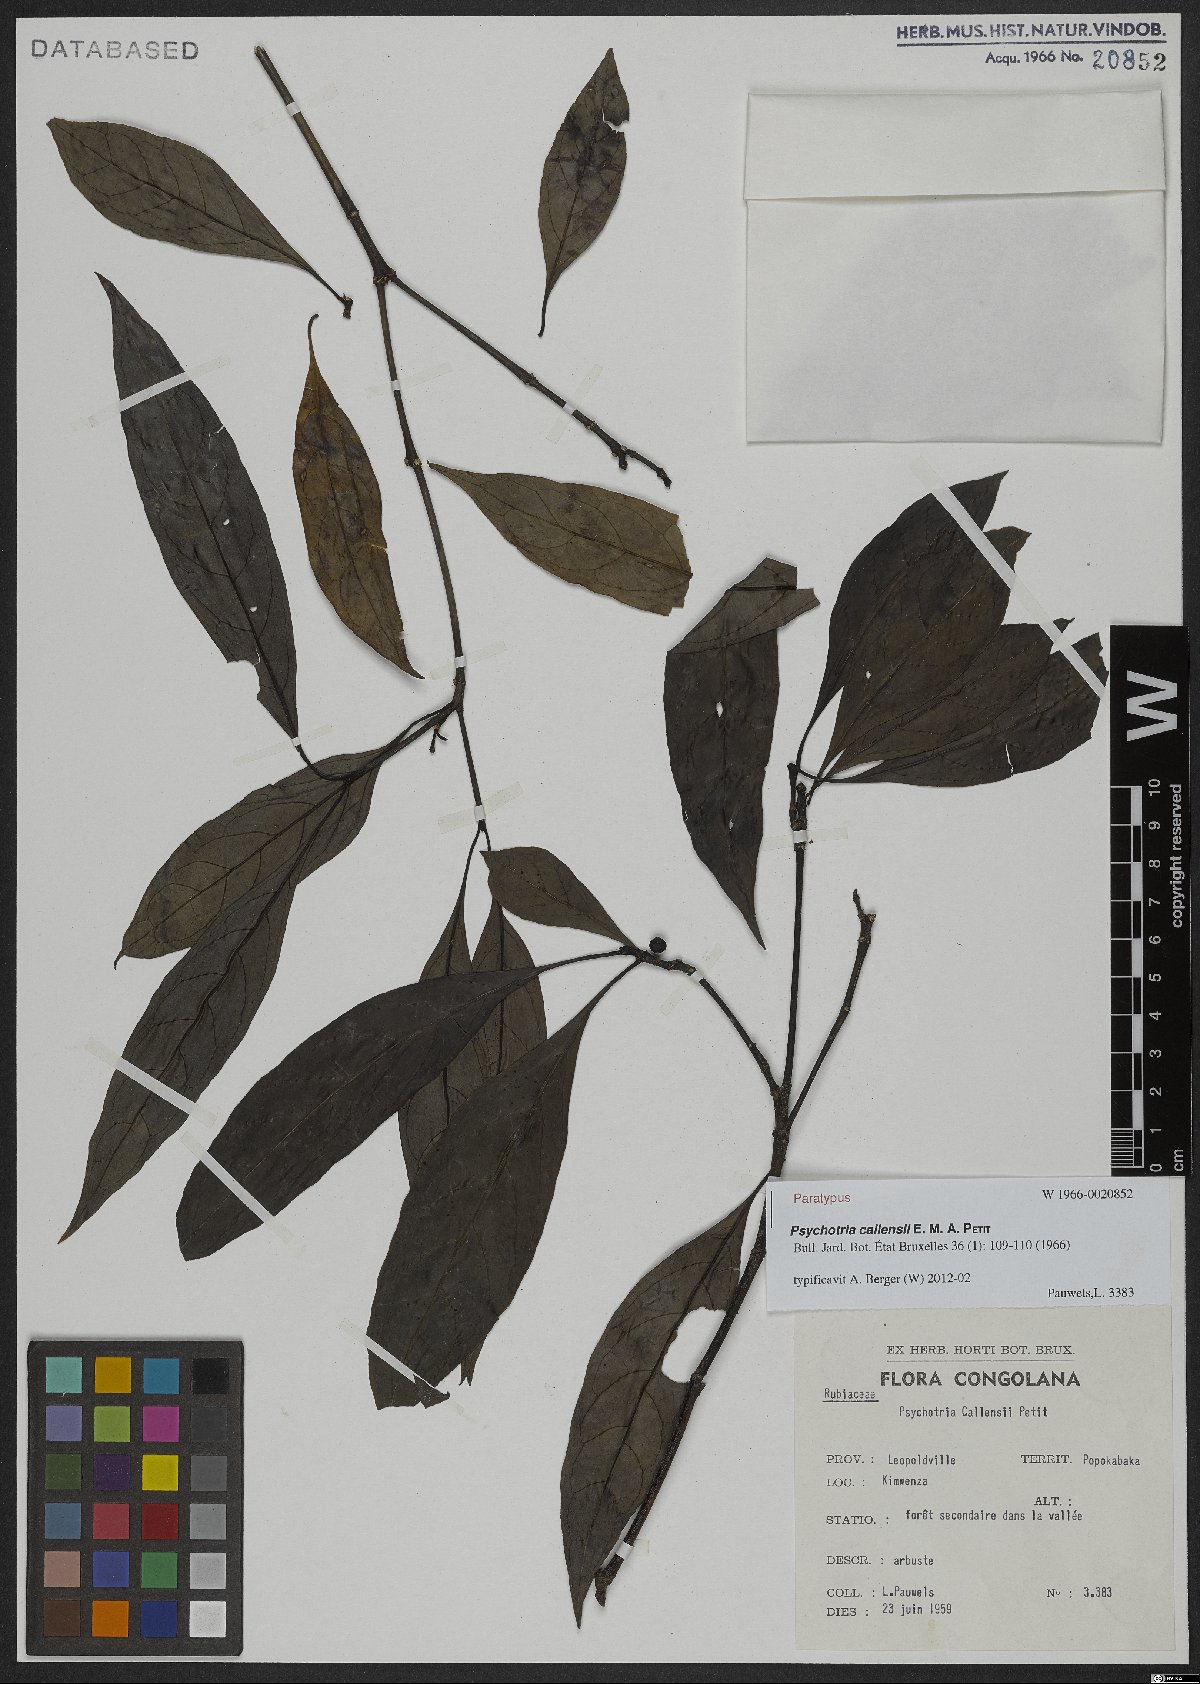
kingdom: Plantae
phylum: Tracheophyta
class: Magnoliopsida
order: Gentianales
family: Rubiaceae
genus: Psychotria
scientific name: Psychotria callensii
